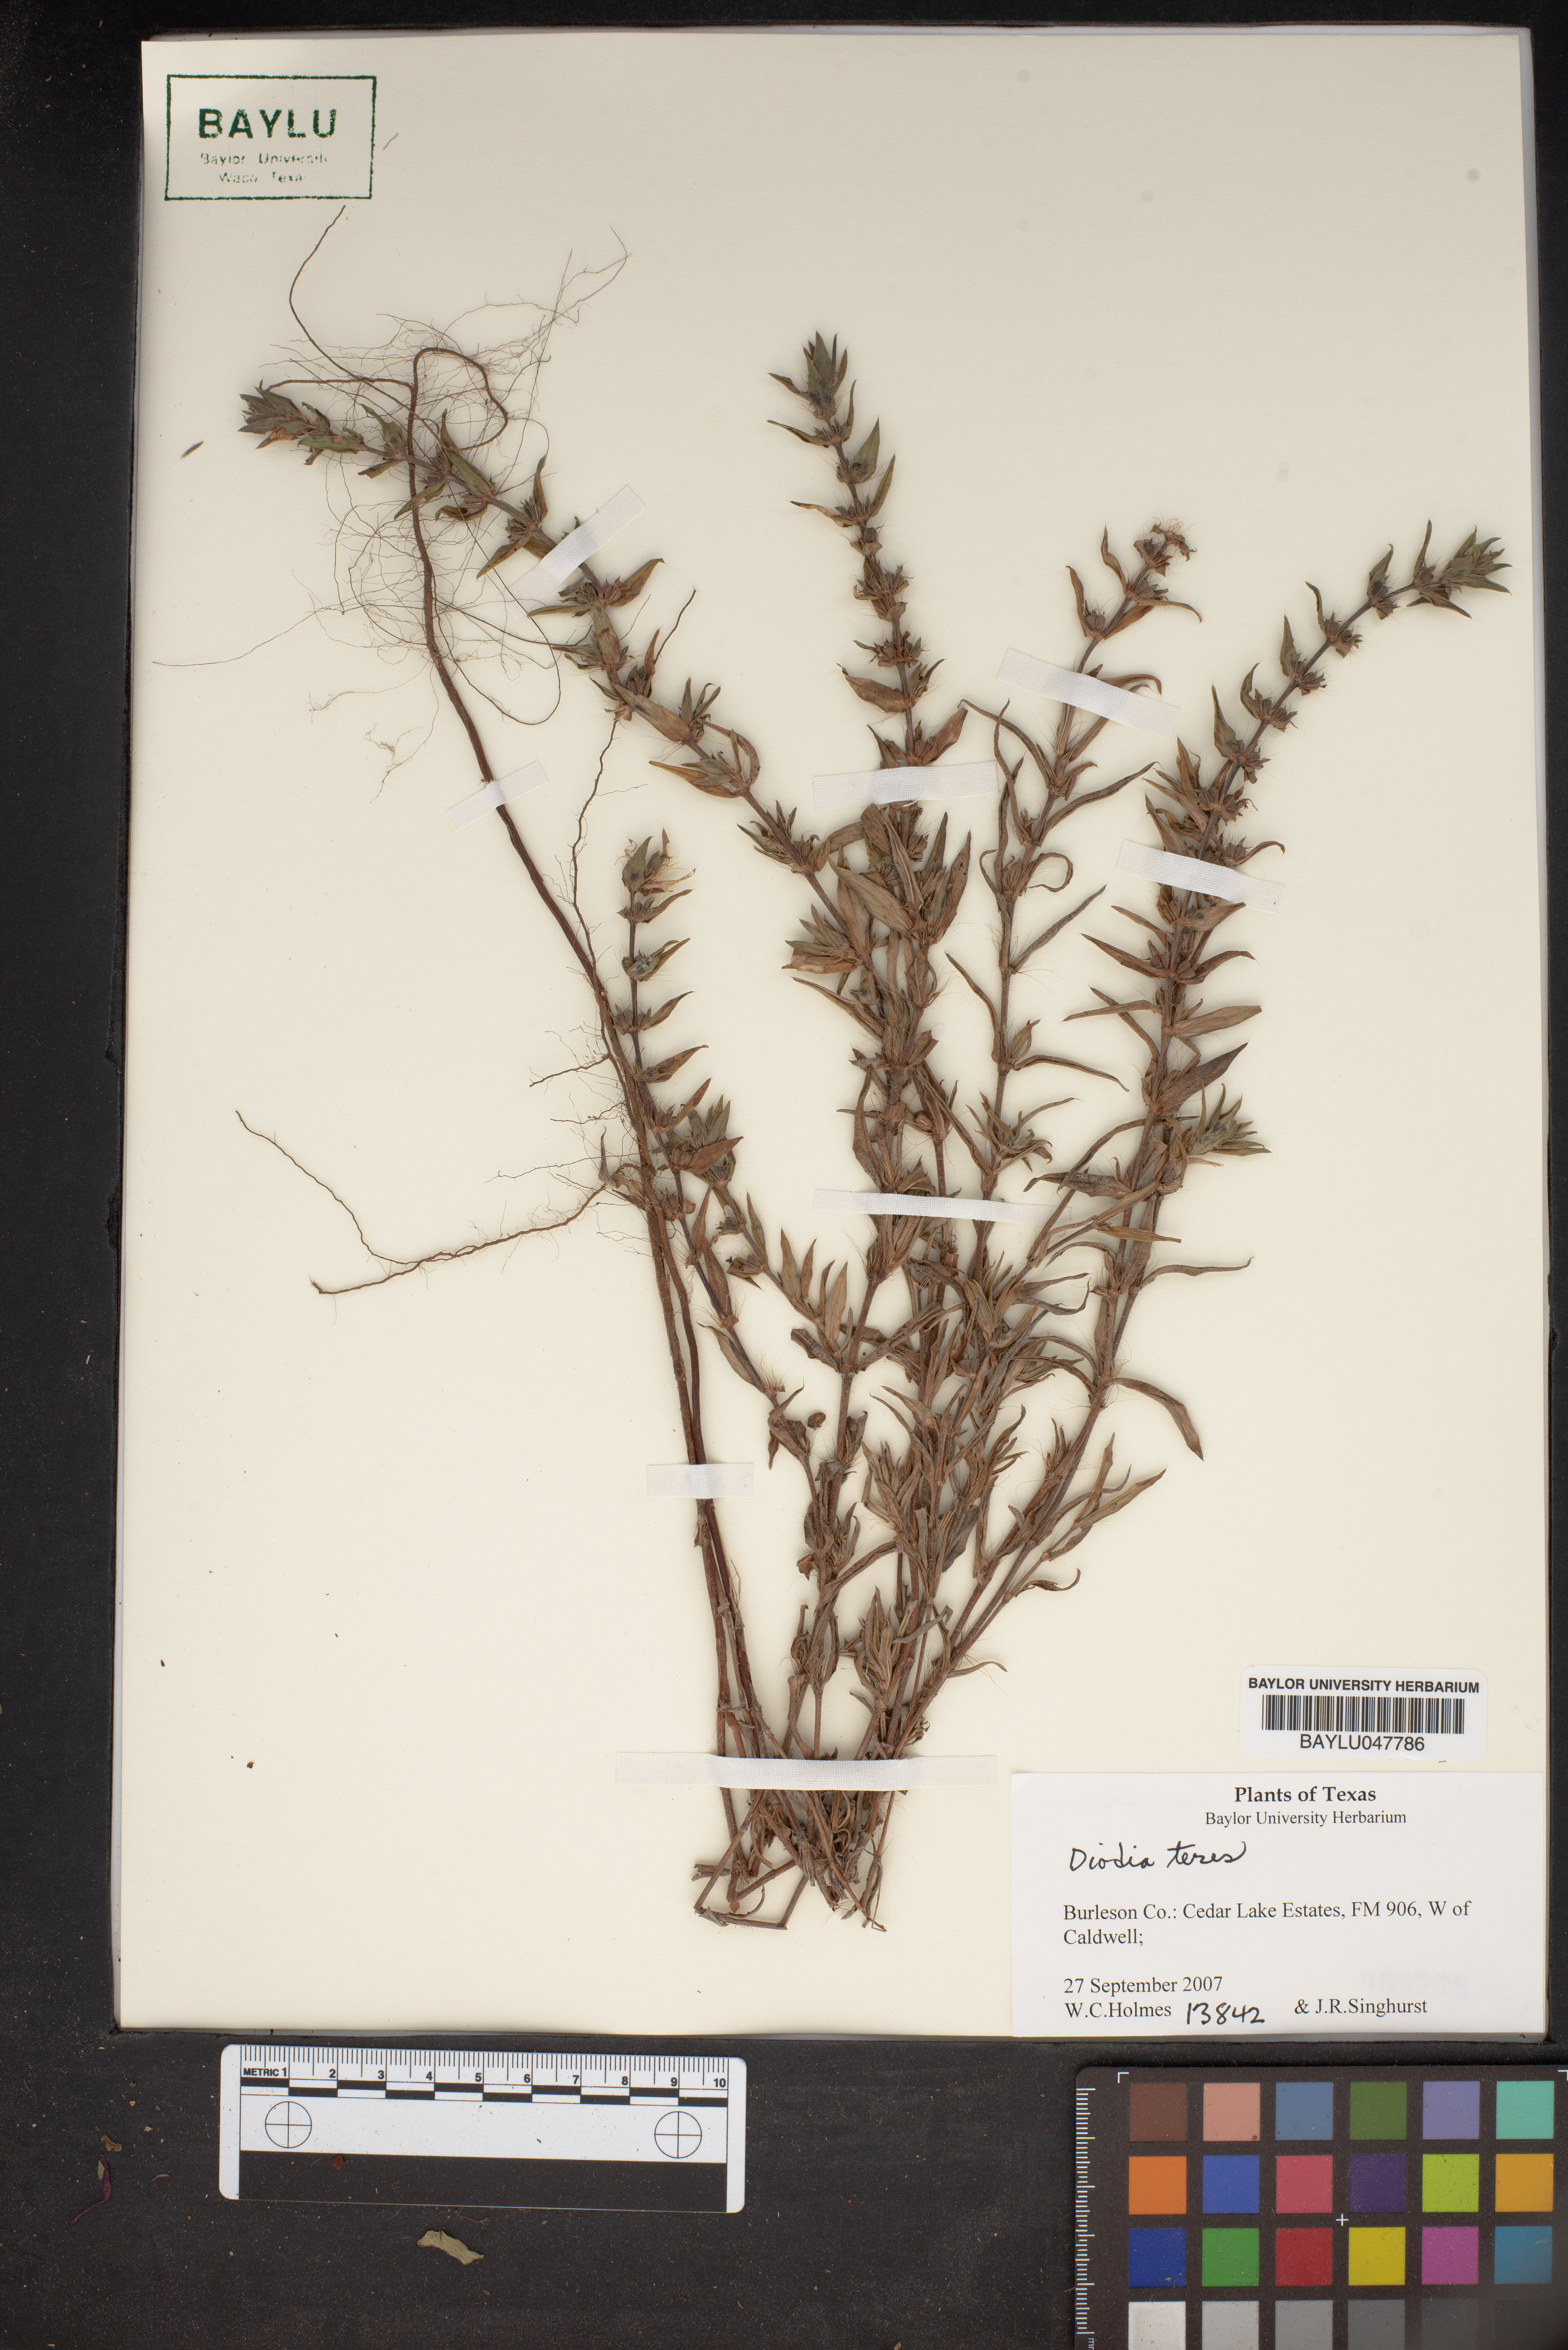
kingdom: Plantae
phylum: Tracheophyta
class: Magnoliopsida
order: Gentianales
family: Rubiaceae
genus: Hexasepalum
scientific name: Hexasepalum teres
